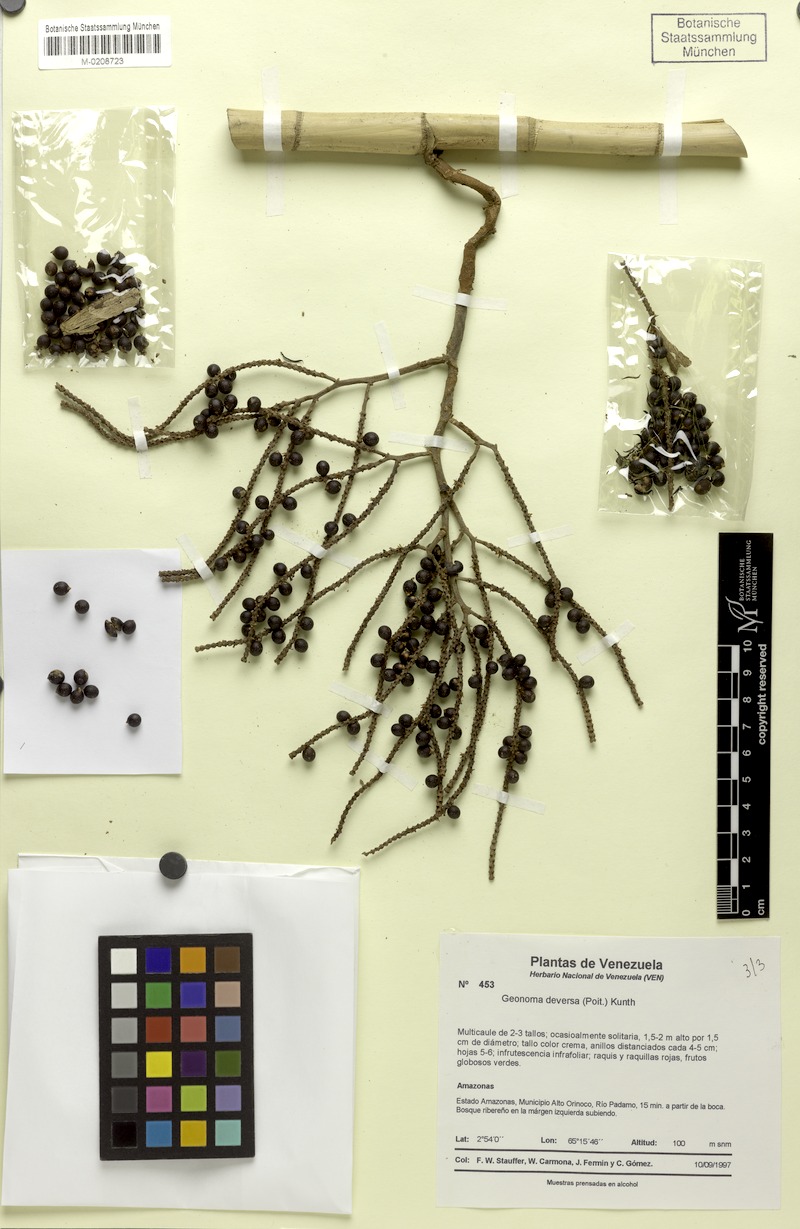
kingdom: Plantae
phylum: Tracheophyta
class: Liliopsida
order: Arecales
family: Arecaceae
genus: Geonoma
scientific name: Geonoma deversa
